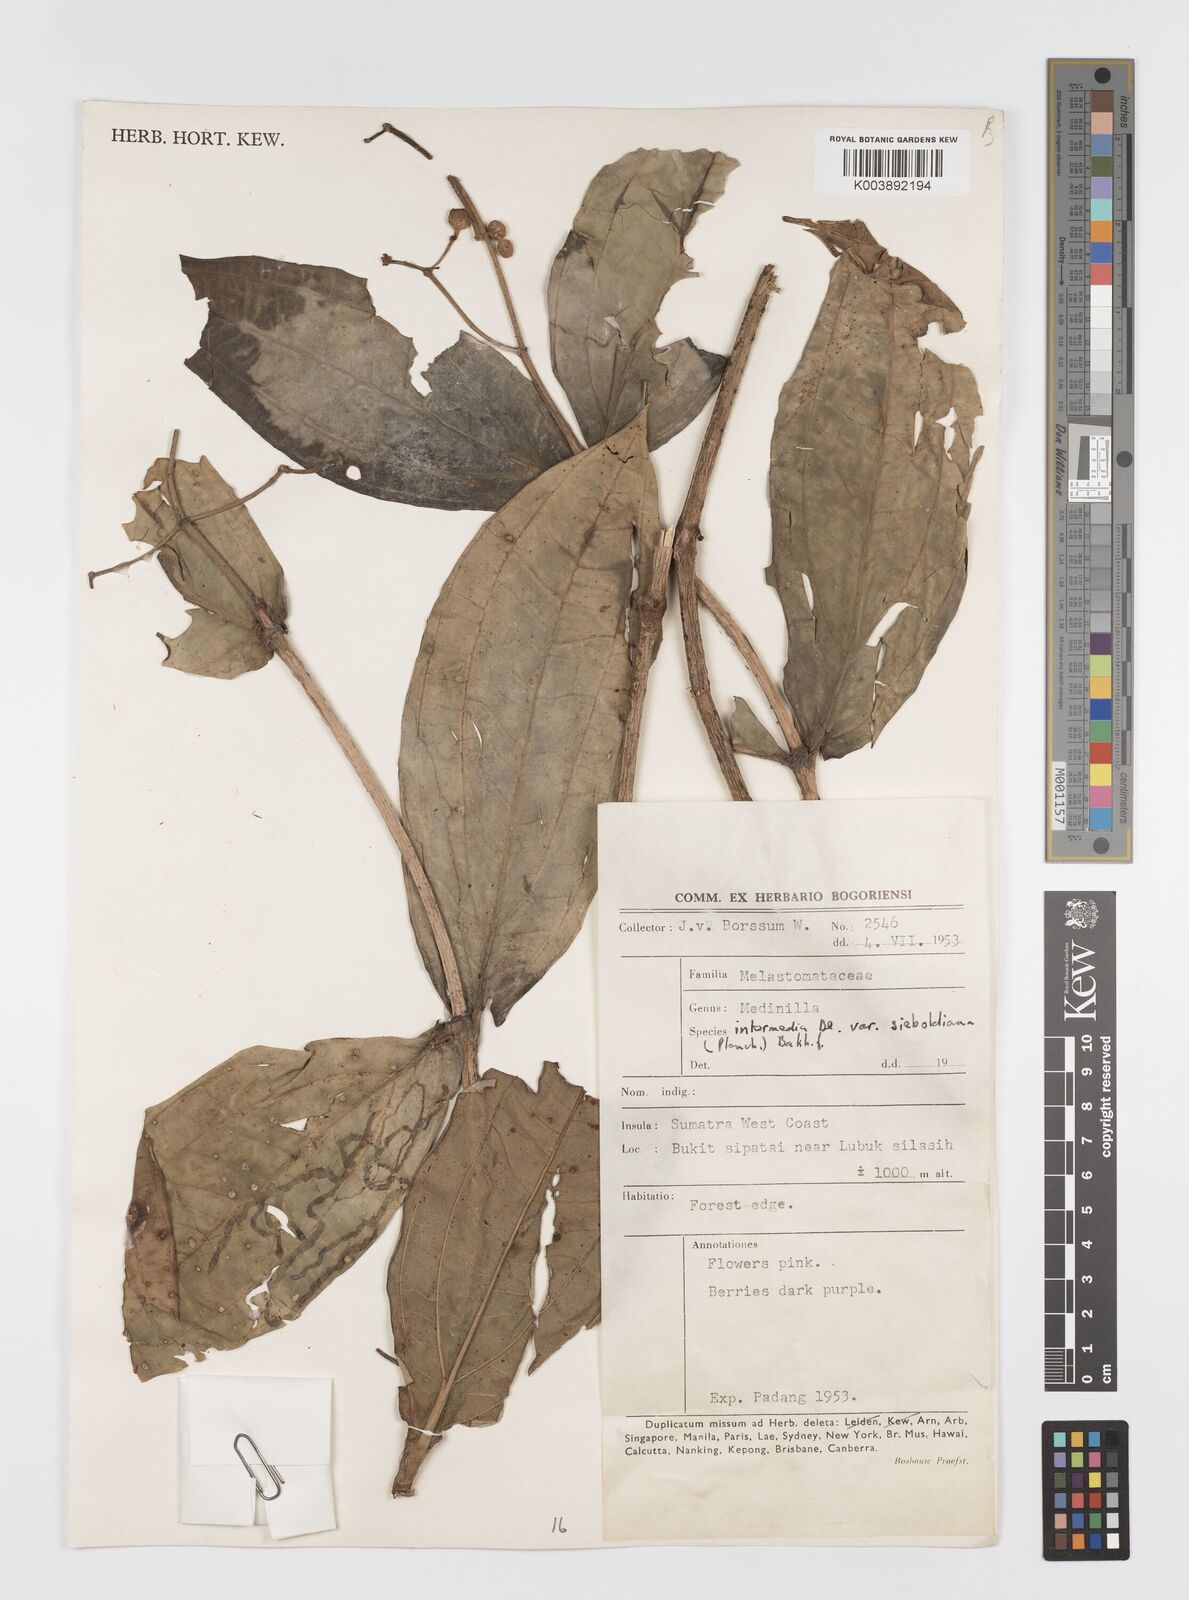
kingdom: Plantae
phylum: Tracheophyta
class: Magnoliopsida
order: Myrtales
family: Melastomataceae
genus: Medinilla
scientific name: Medinilla intermedia
